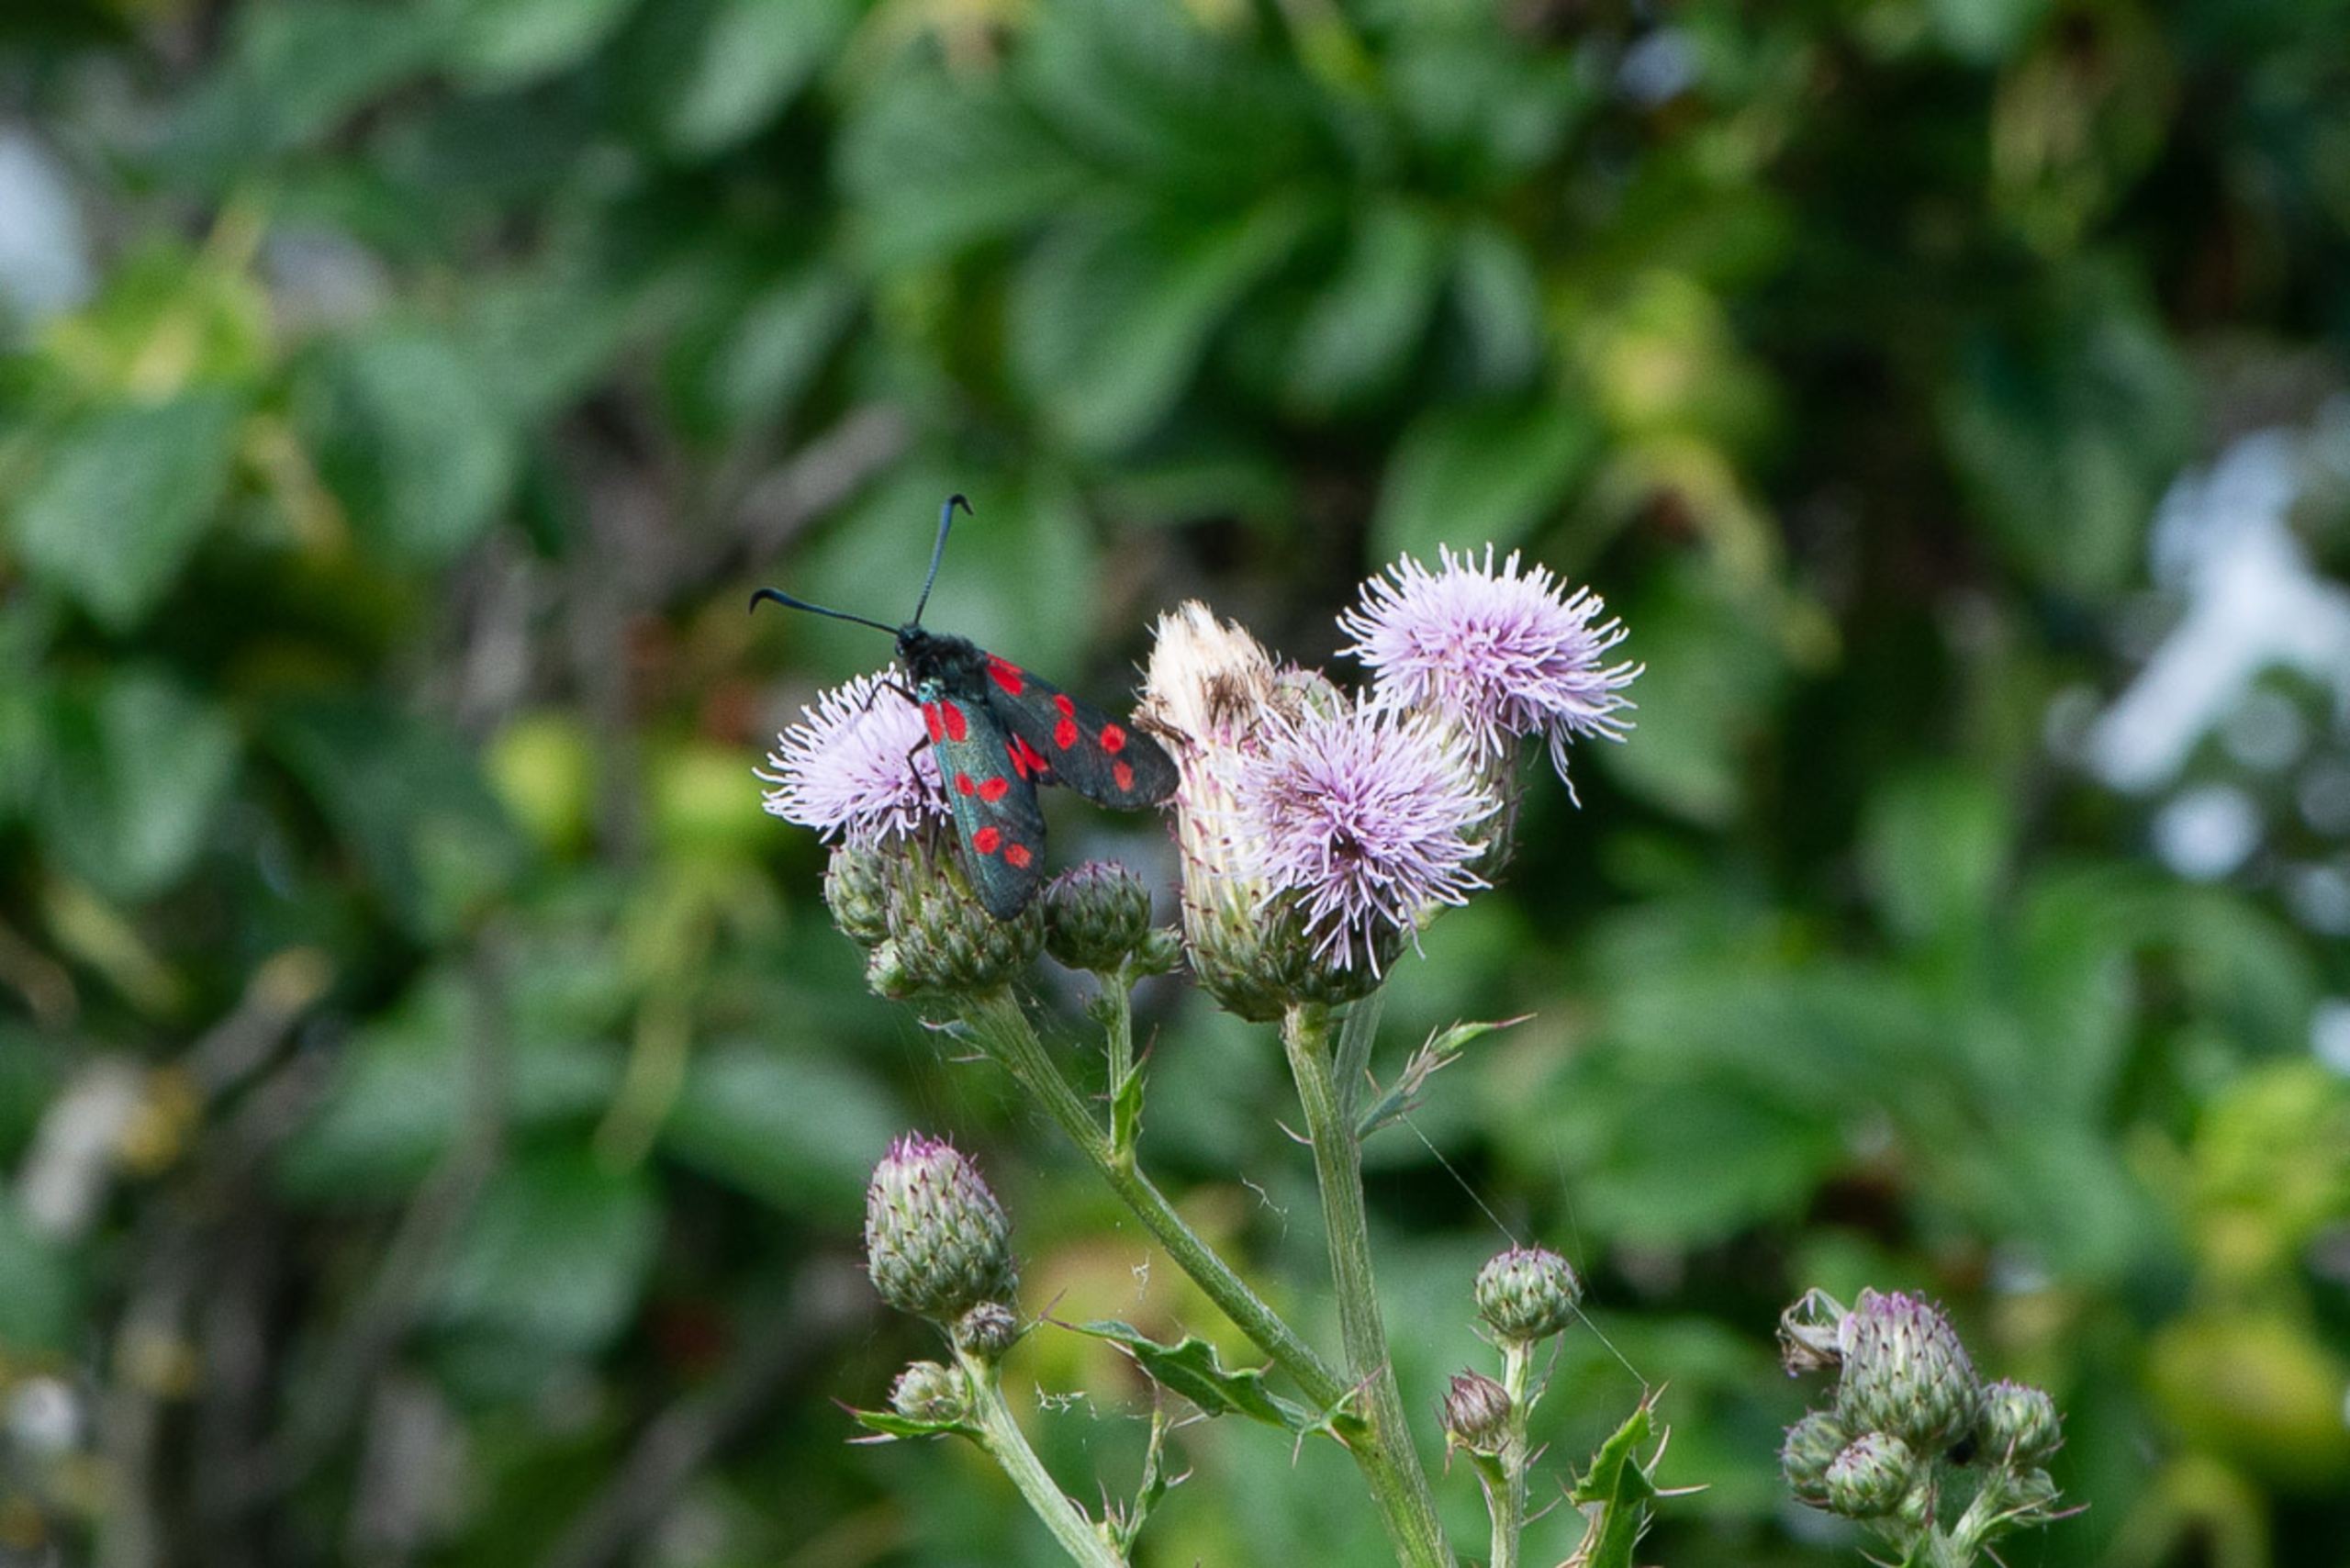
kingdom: Animalia
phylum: Arthropoda
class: Insecta
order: Lepidoptera
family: Zygaenidae
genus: Zygaena
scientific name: Zygaena filipendulae
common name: Seksplettet køllesværmer
